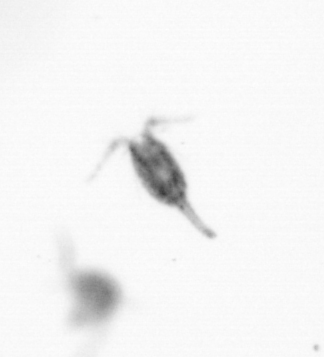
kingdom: Animalia
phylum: Arthropoda
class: Copepoda
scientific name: Copepoda
